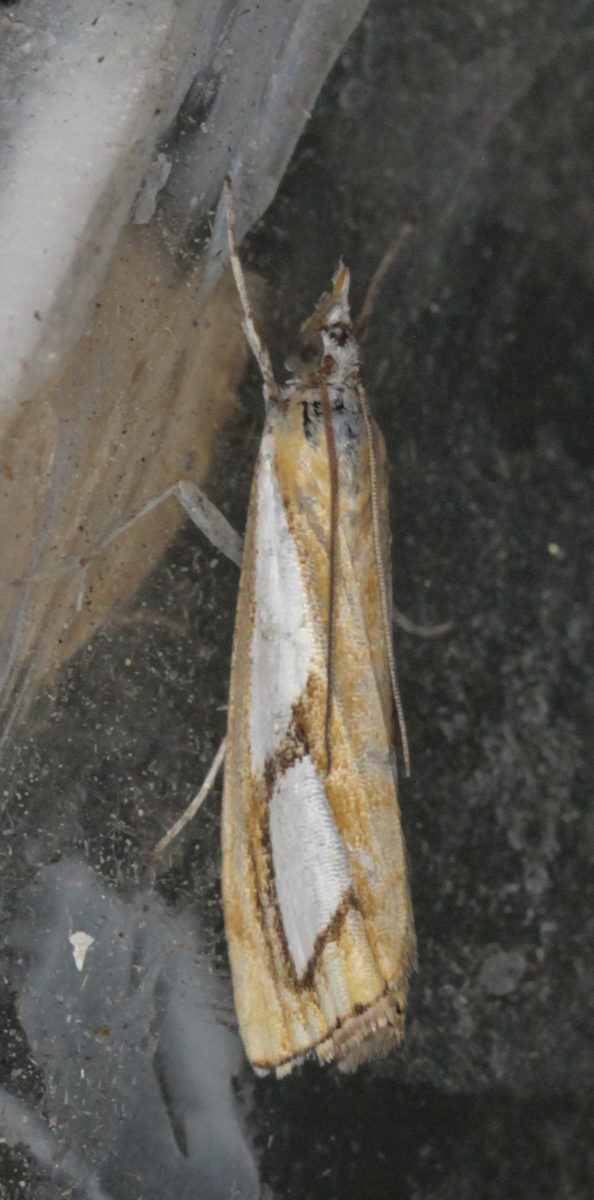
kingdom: Animalia
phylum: Arthropoda
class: Insecta
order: Lepidoptera
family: Crambidae
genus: Catoptria
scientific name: Catoptria pinella
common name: Pearl grass-veneer
